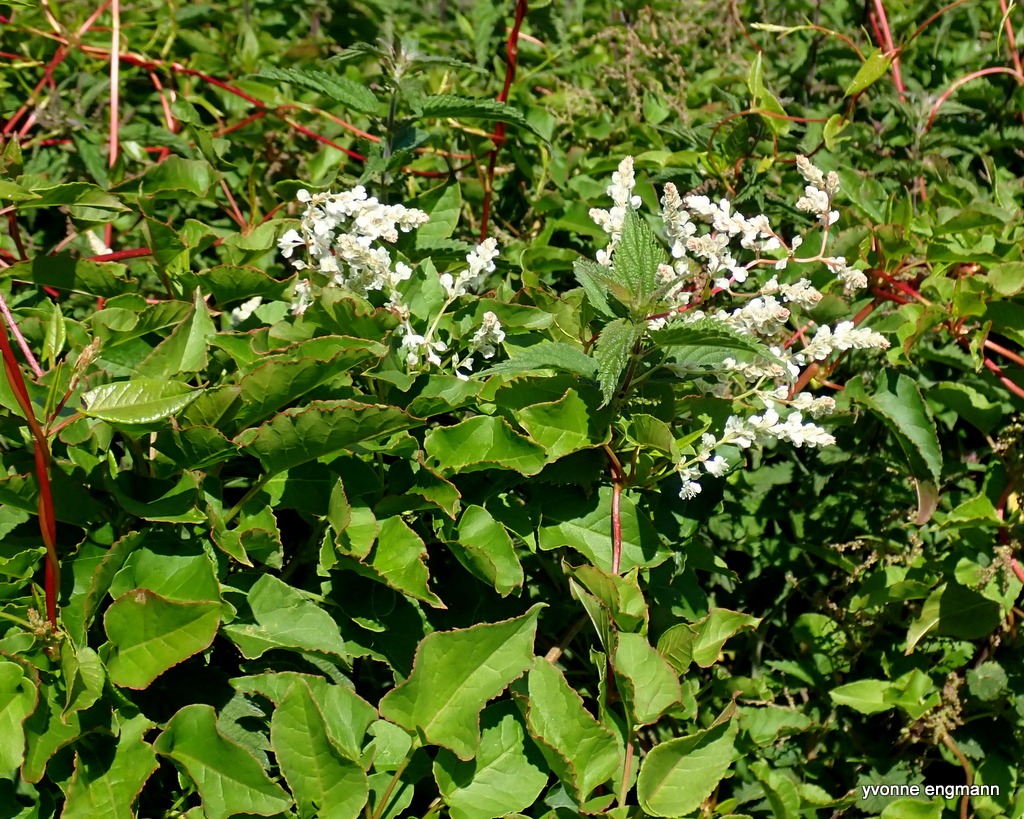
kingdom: Plantae
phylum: Tracheophyta
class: Magnoliopsida
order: Caryophyllales
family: Polygonaceae
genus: Fallopia
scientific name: Fallopia baldschuanica
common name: Sølvregn
